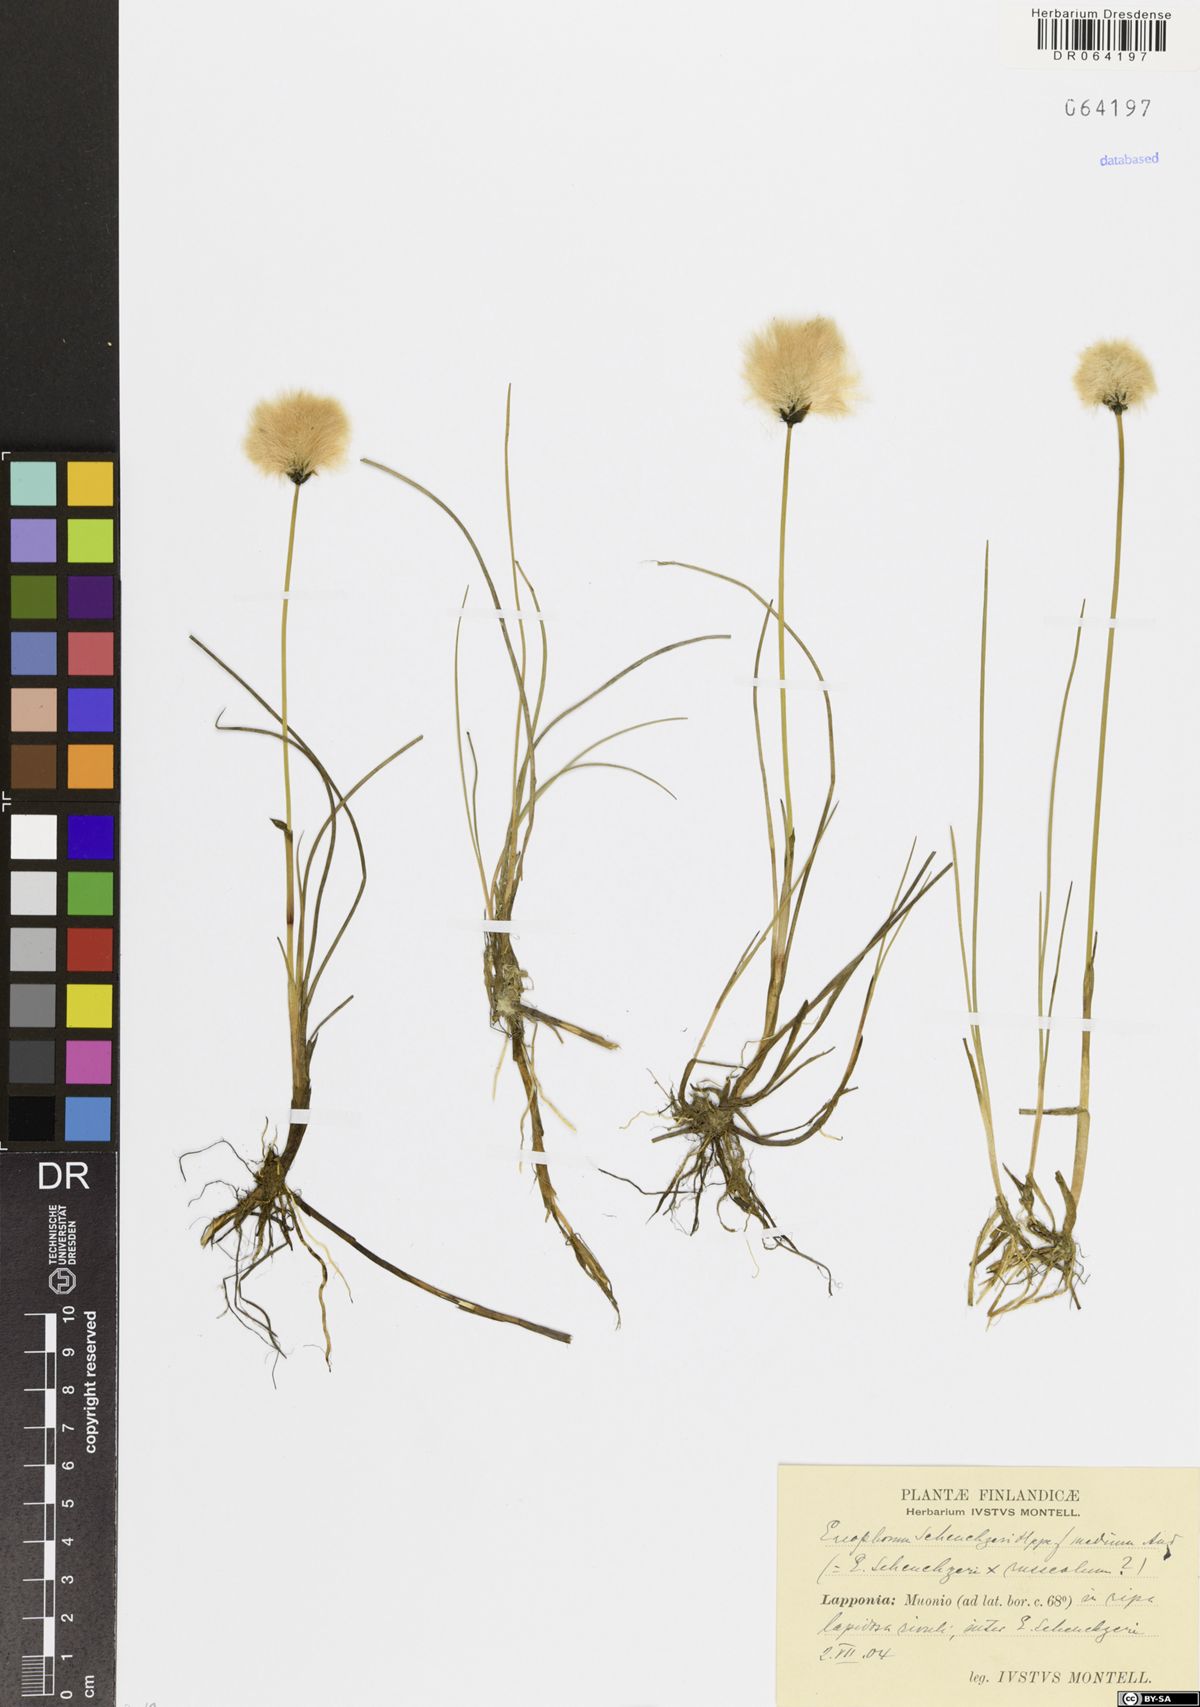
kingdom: Plantae
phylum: Tracheophyta
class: Liliopsida
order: Poales
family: Cyperaceae
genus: Eriophorum
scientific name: Eriophorum scheuchzeri
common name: Scheuchzer's cottongrass
